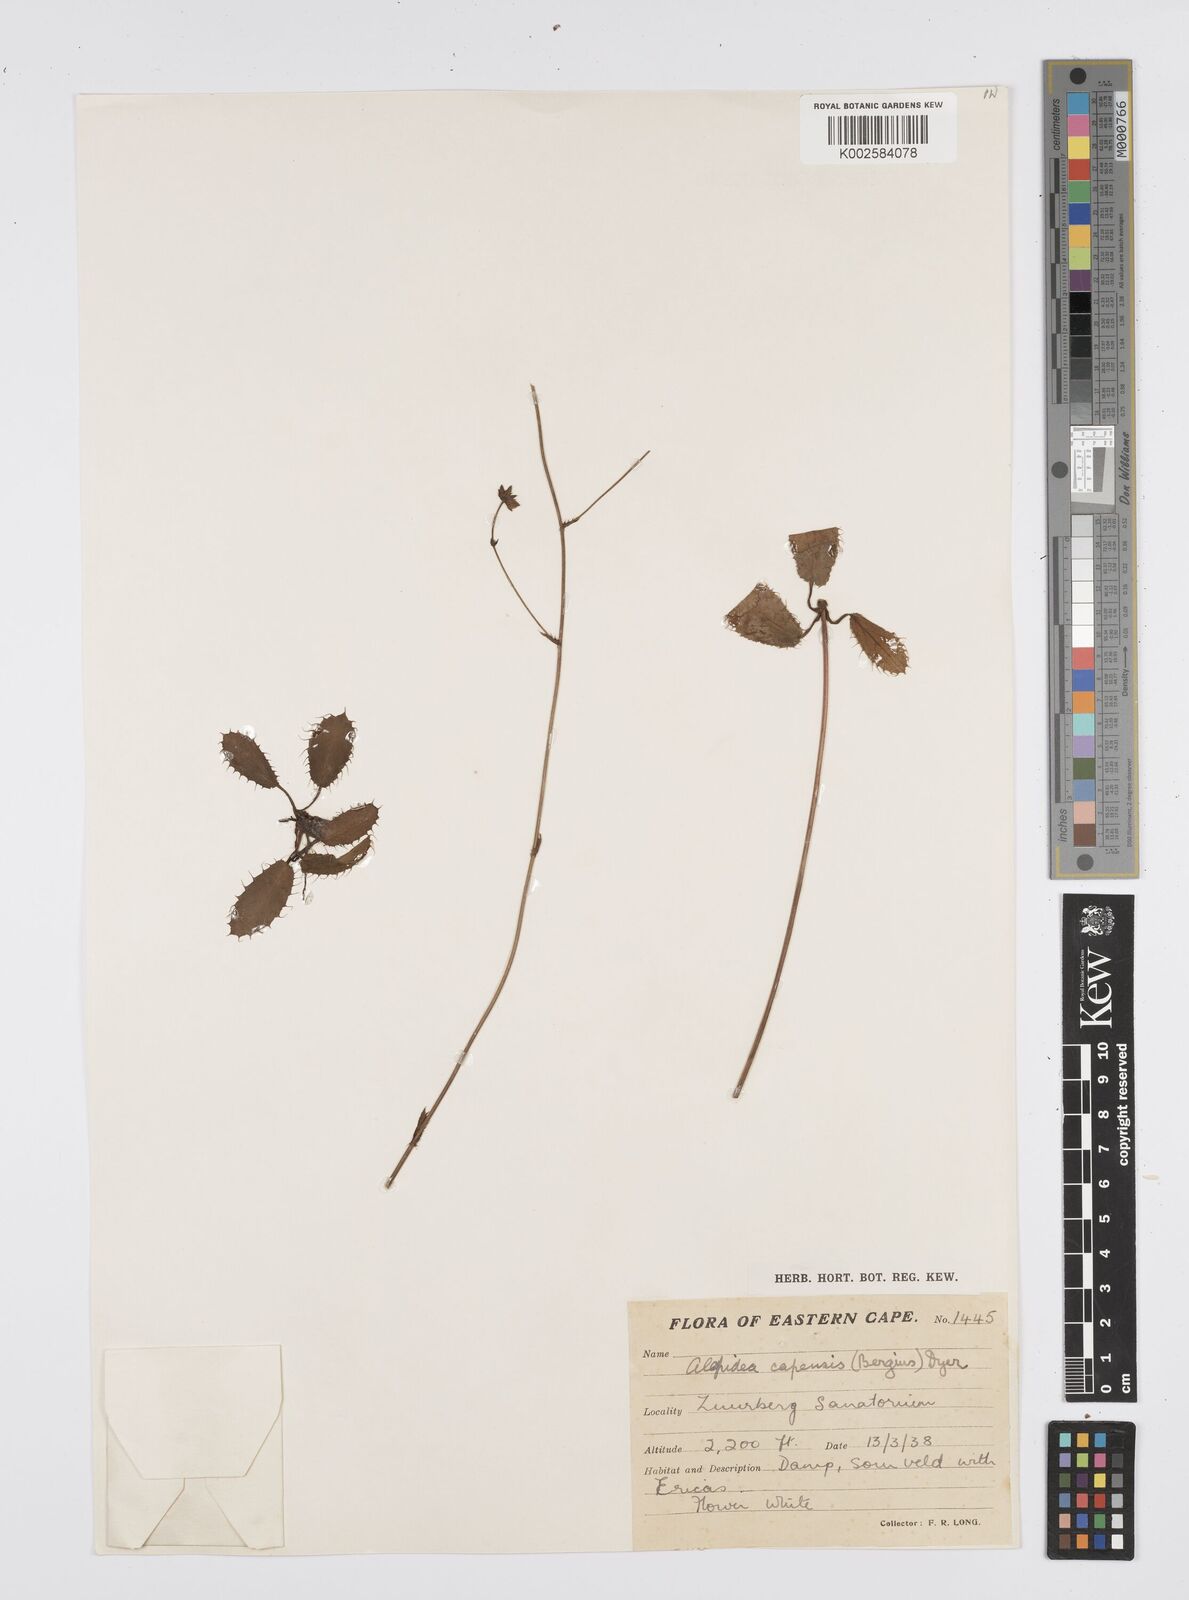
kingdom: Plantae
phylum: Tracheophyta
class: Magnoliopsida
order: Apiales
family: Apiaceae
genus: Alepidea
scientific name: Alepidea capensis
